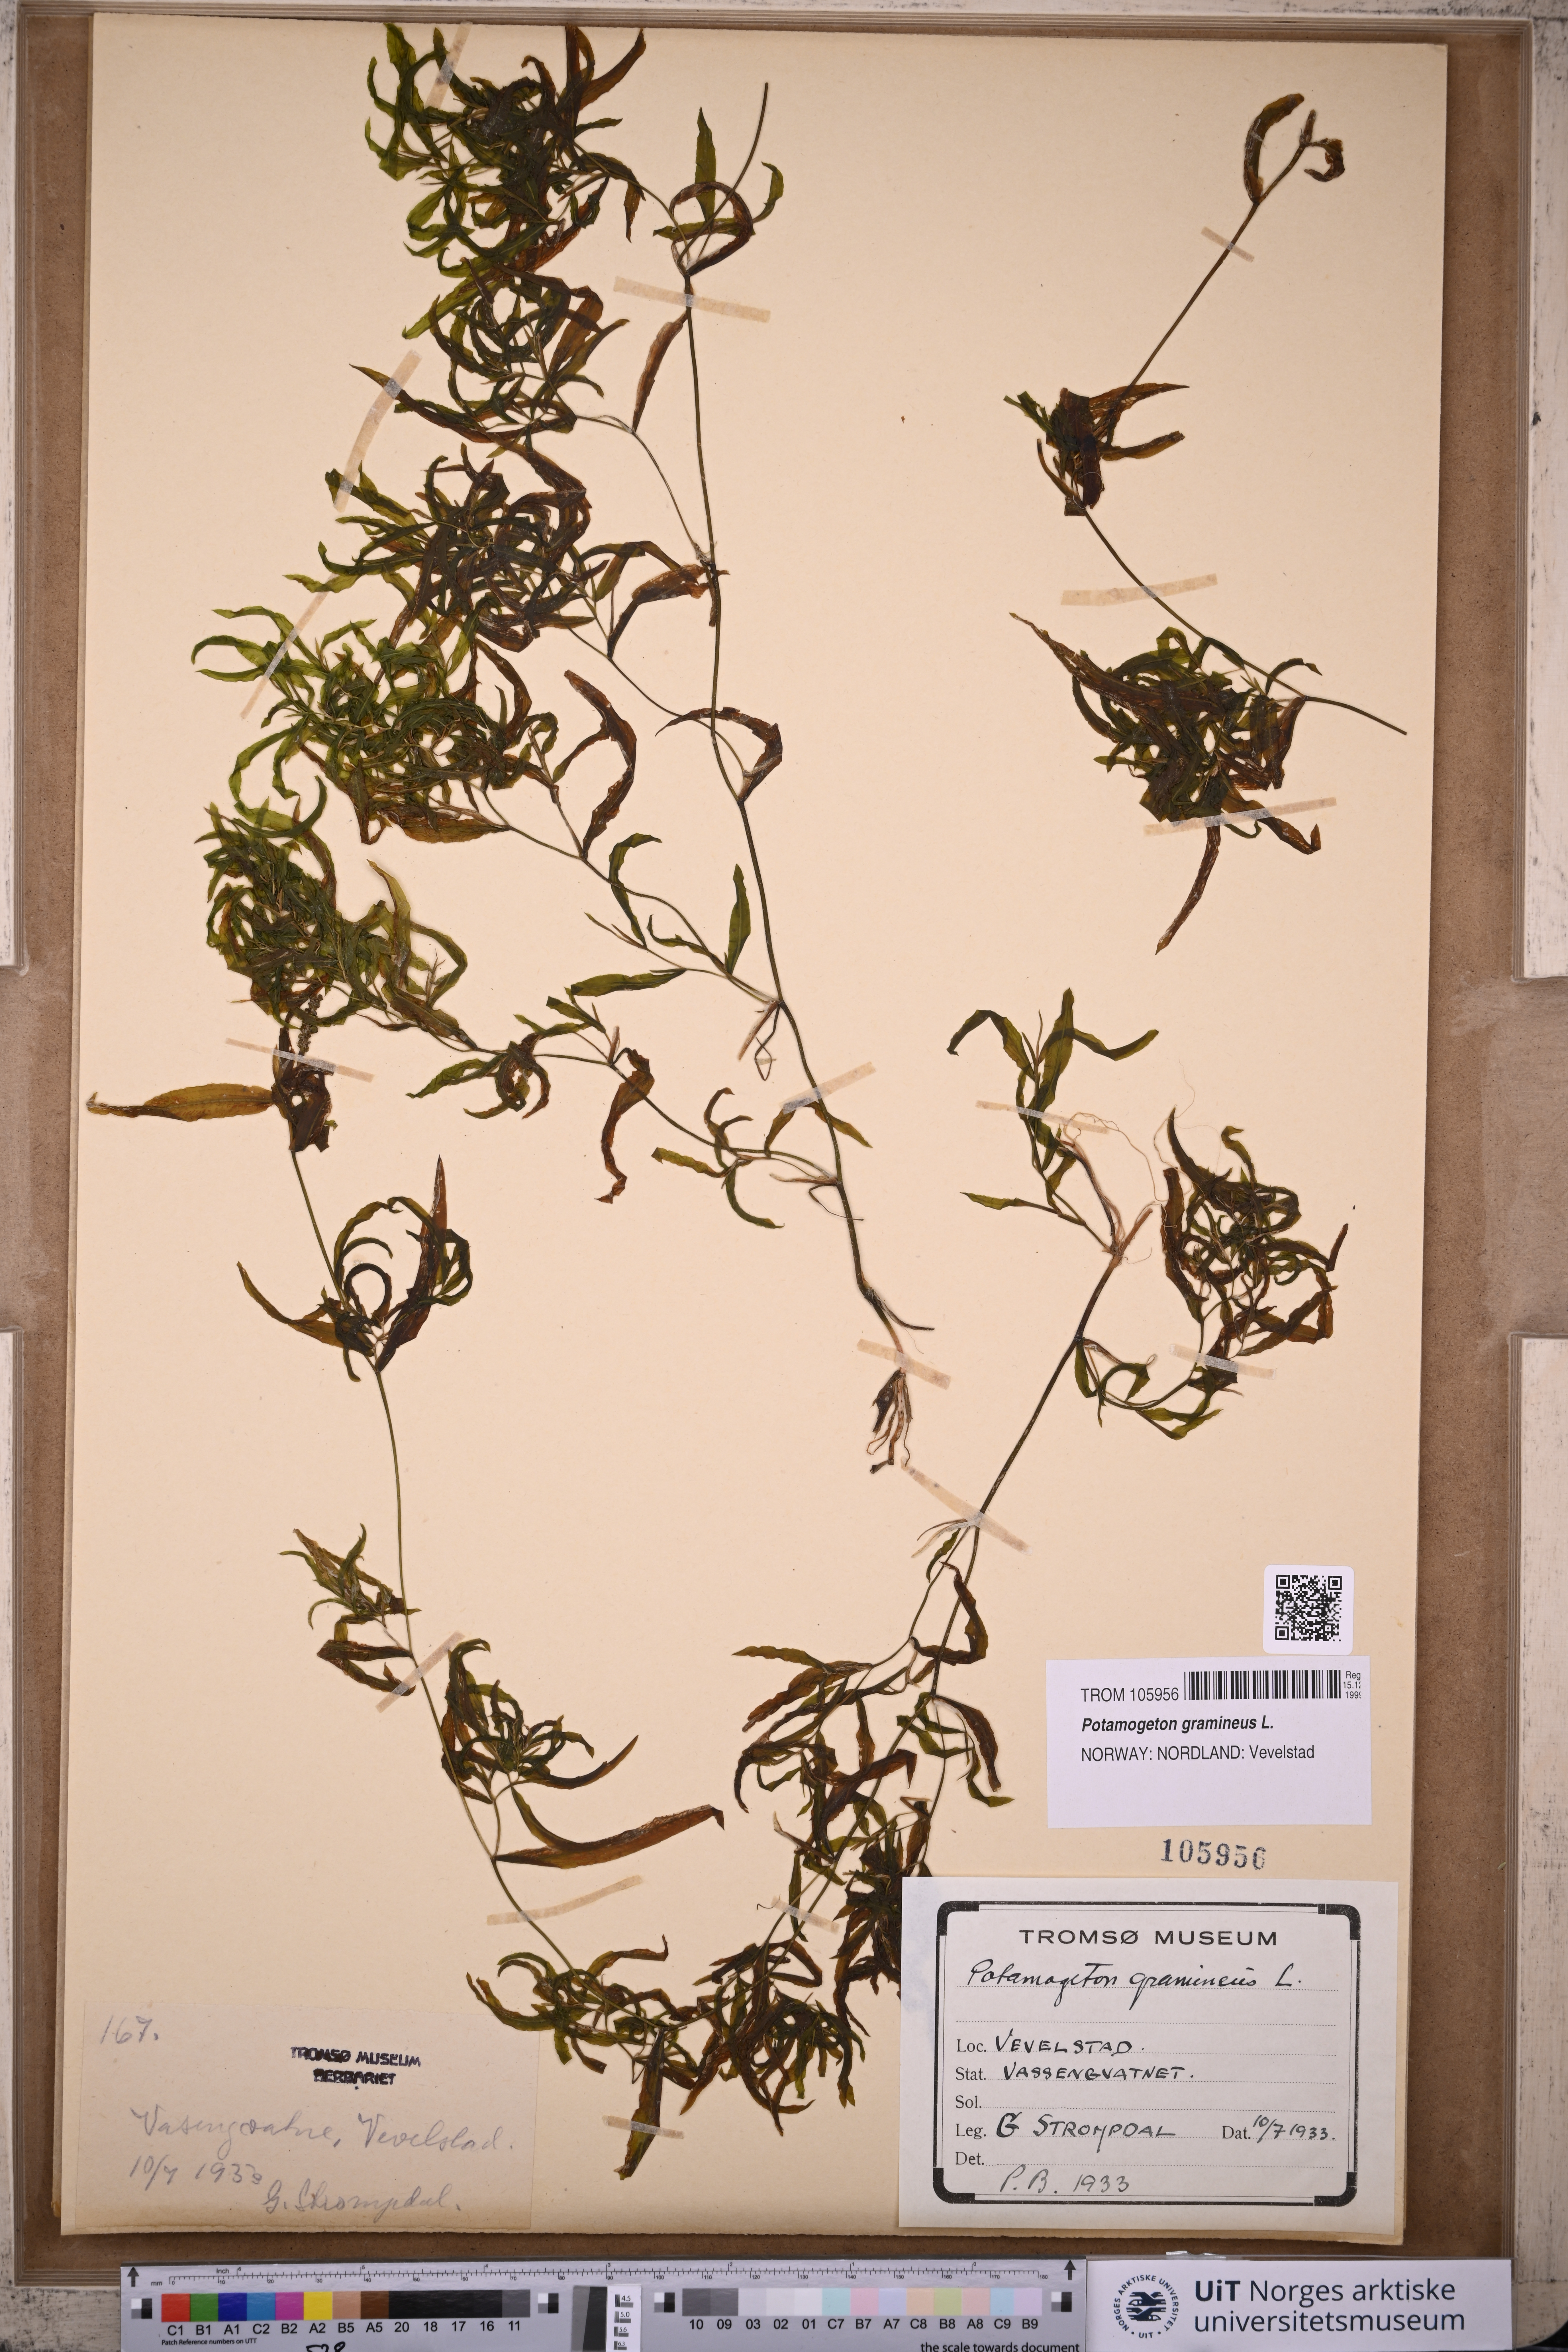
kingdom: Plantae
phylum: Tracheophyta
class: Liliopsida
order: Alismatales
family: Potamogetonaceae
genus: Potamogeton
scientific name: Potamogeton gramineus
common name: Various-leaved pondweed
